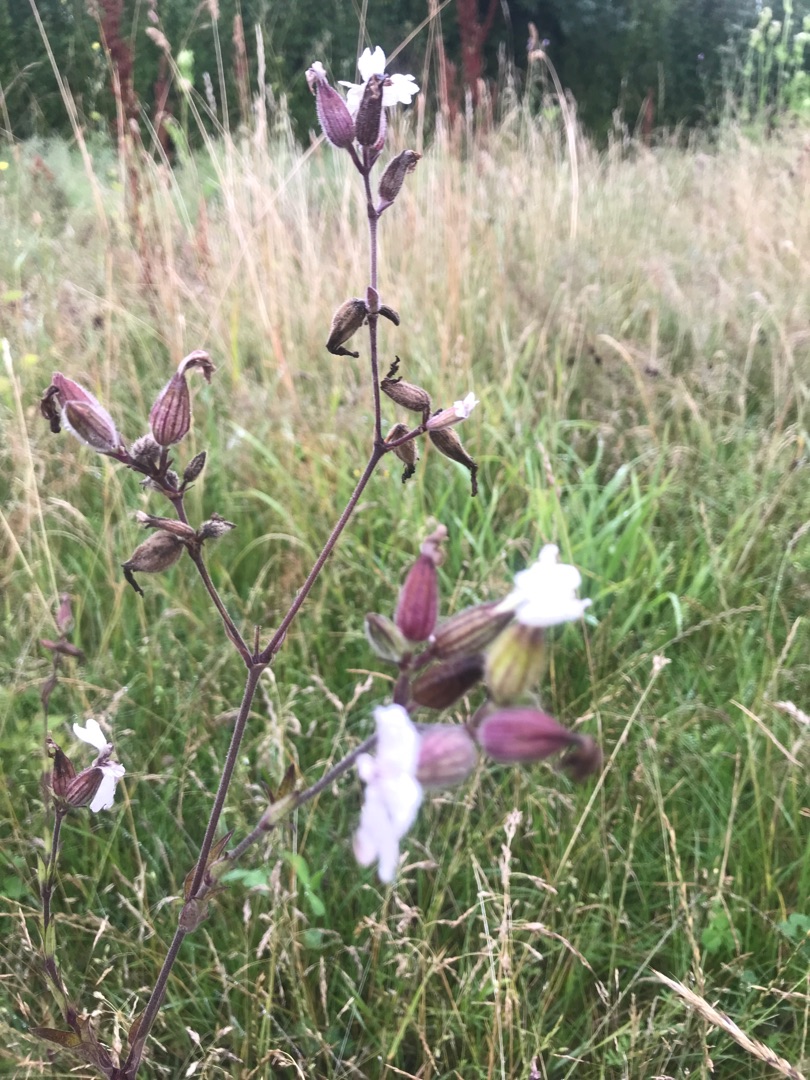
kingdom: Plantae
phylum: Tracheophyta
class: Magnoliopsida
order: Caryophyllales
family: Caryophyllaceae
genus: Silene
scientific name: Silene latifolia
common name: Aftenpragtstjerne
